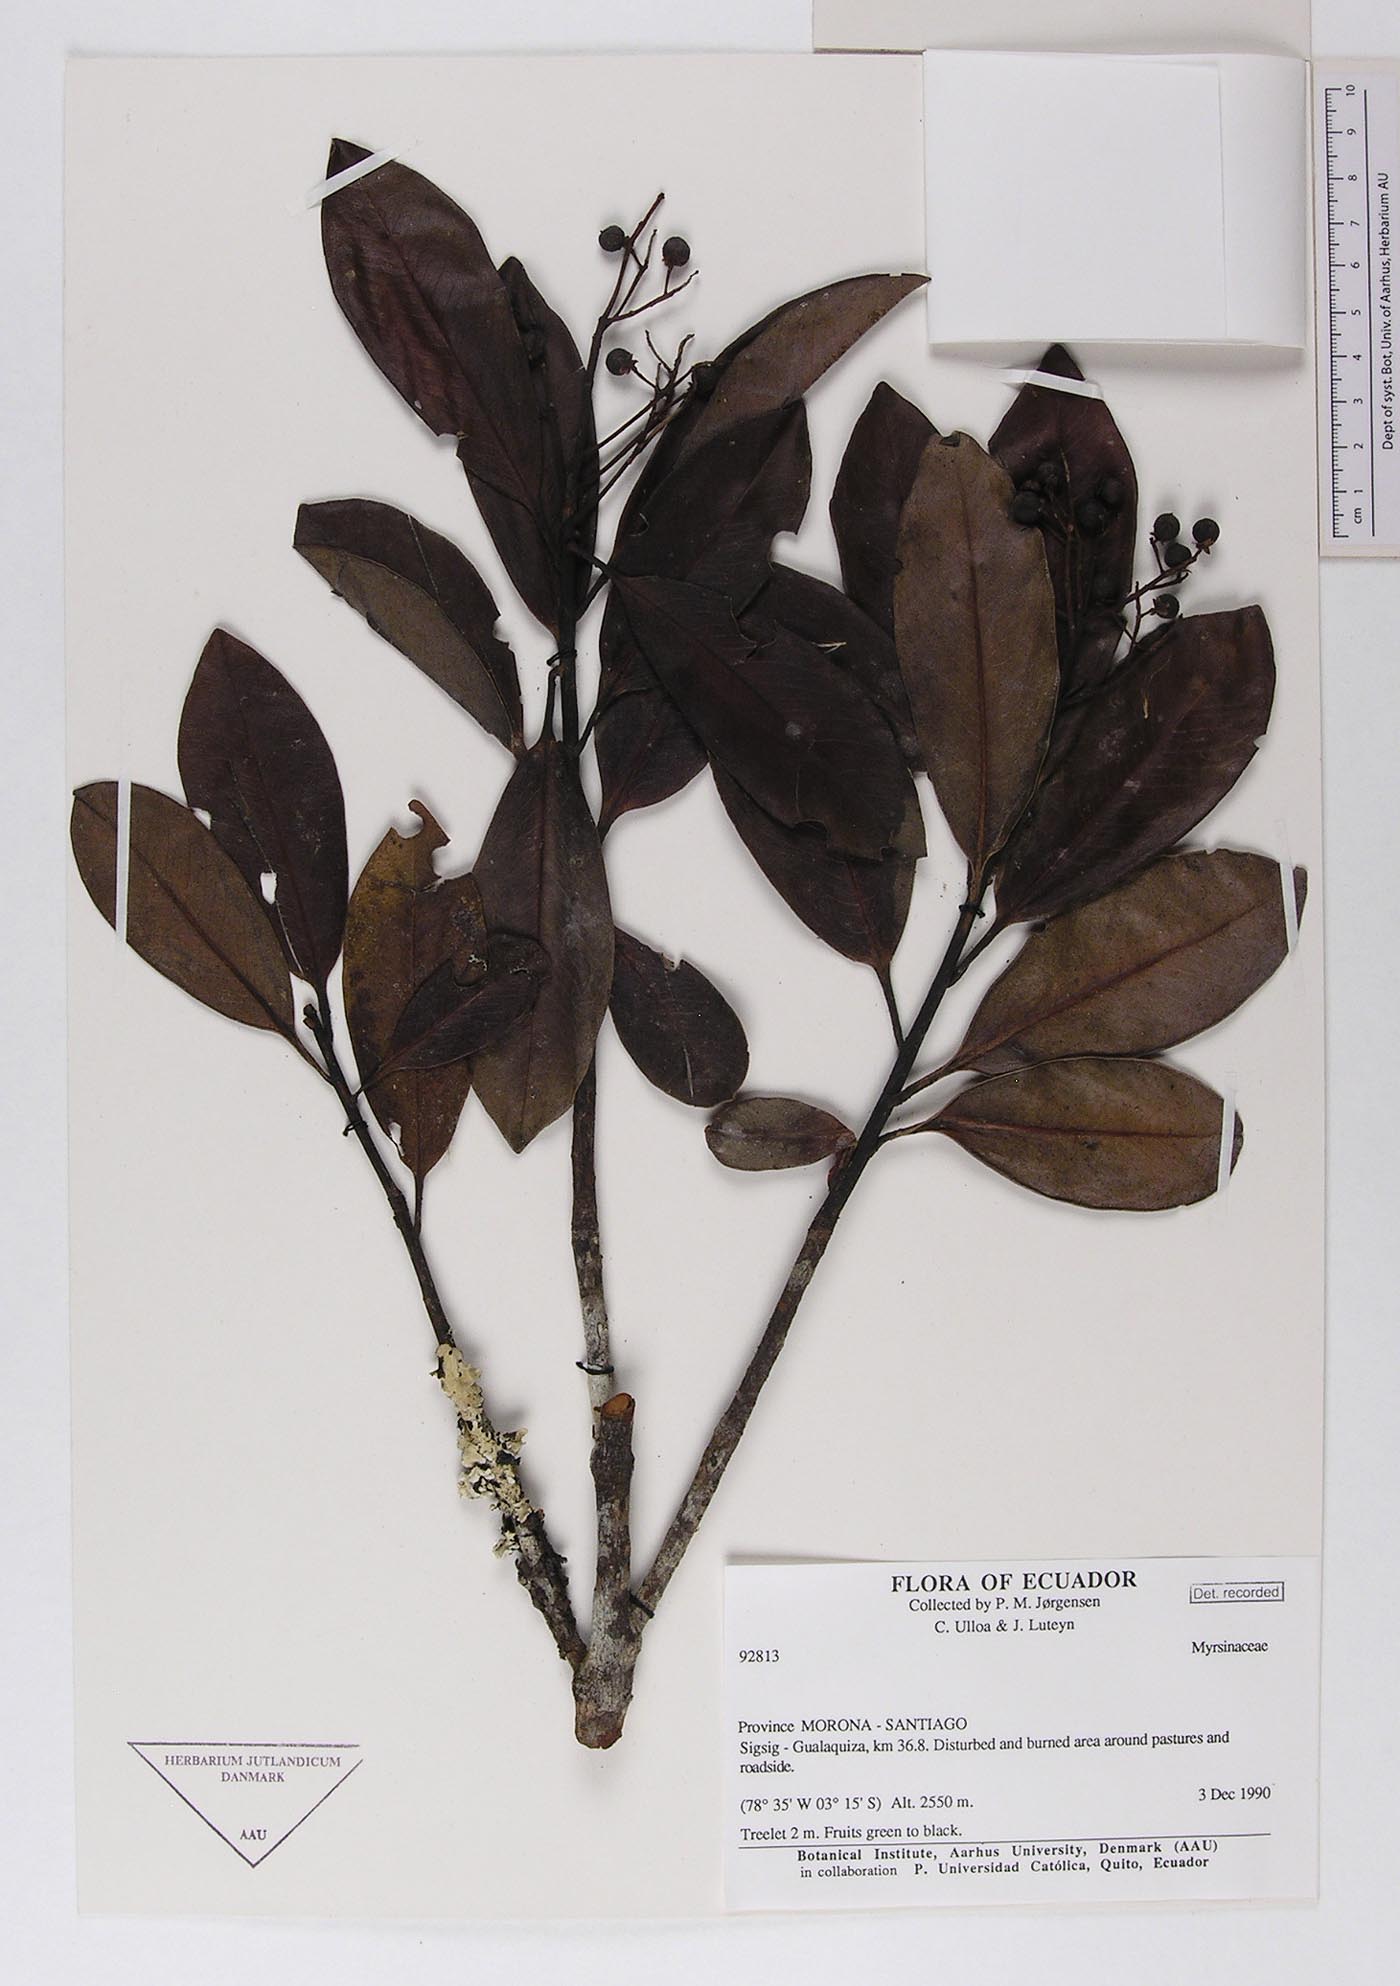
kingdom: Plantae
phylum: Tracheophyta
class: Magnoliopsida
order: Ericales
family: Primulaceae
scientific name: Primulaceae
